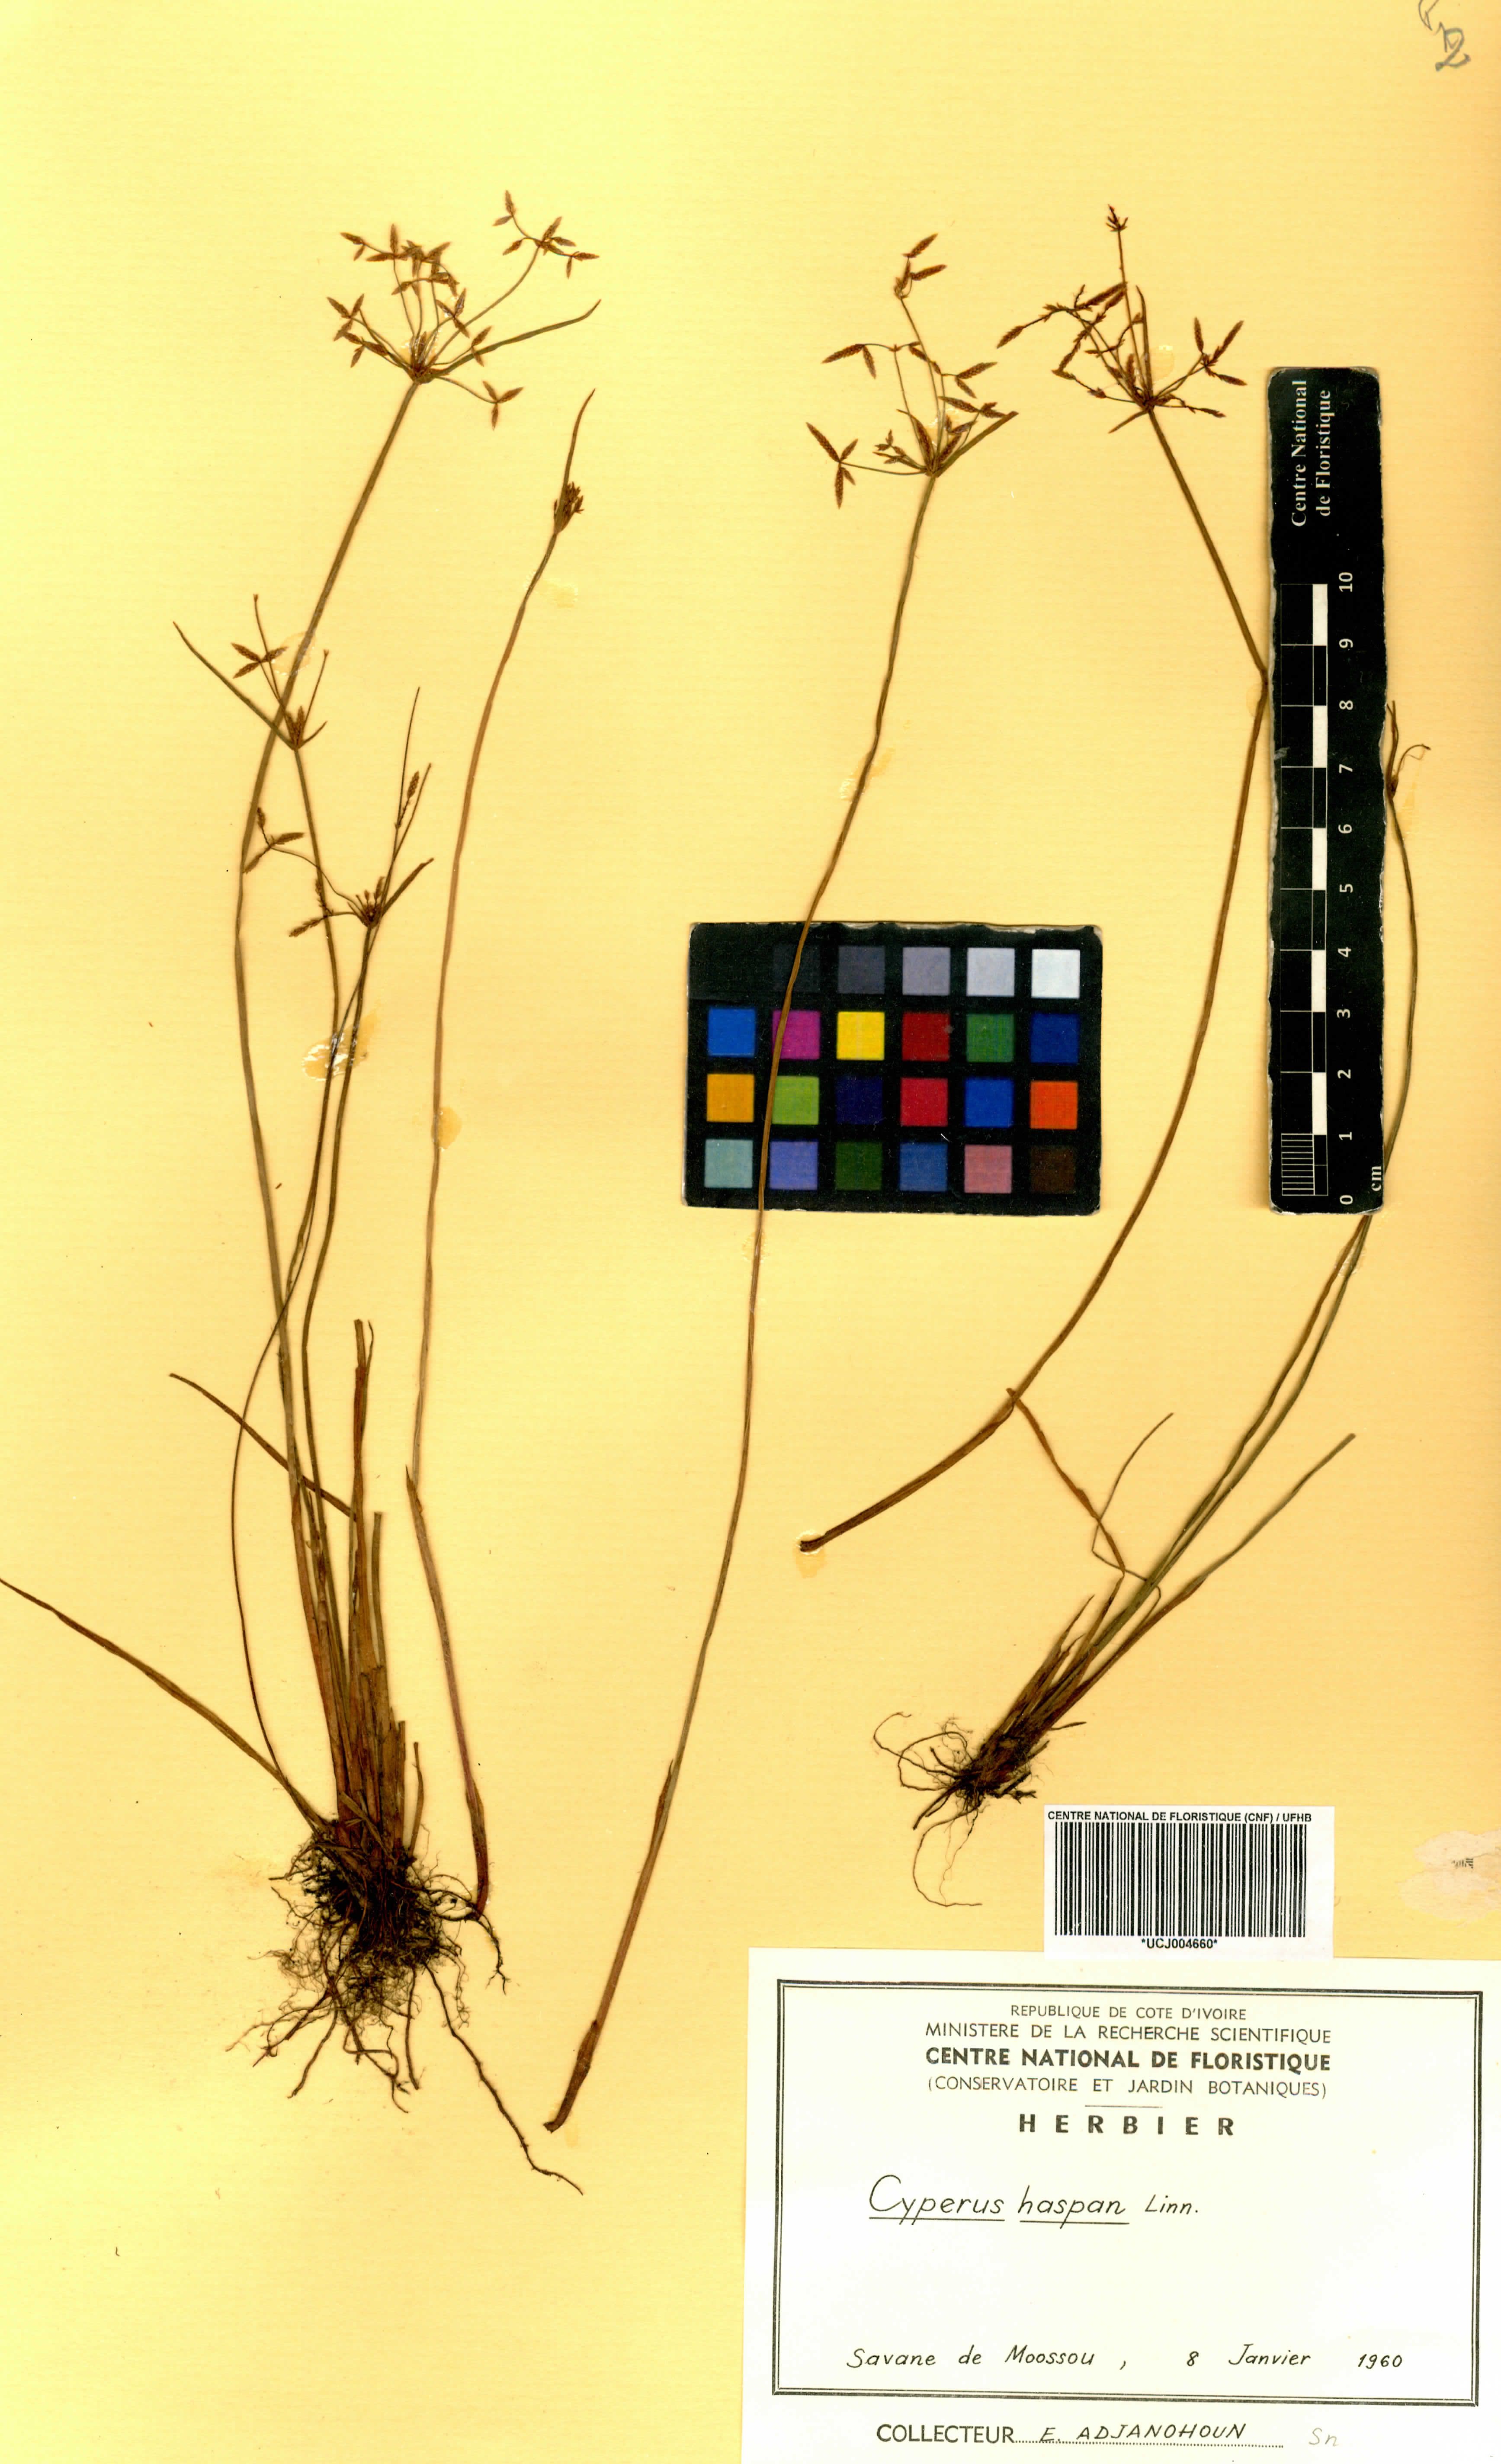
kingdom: Plantae
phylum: Tracheophyta
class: Liliopsida
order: Poales
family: Cyperaceae
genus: Cyperus
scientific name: Cyperus haspan
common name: Haspan flatsedge
